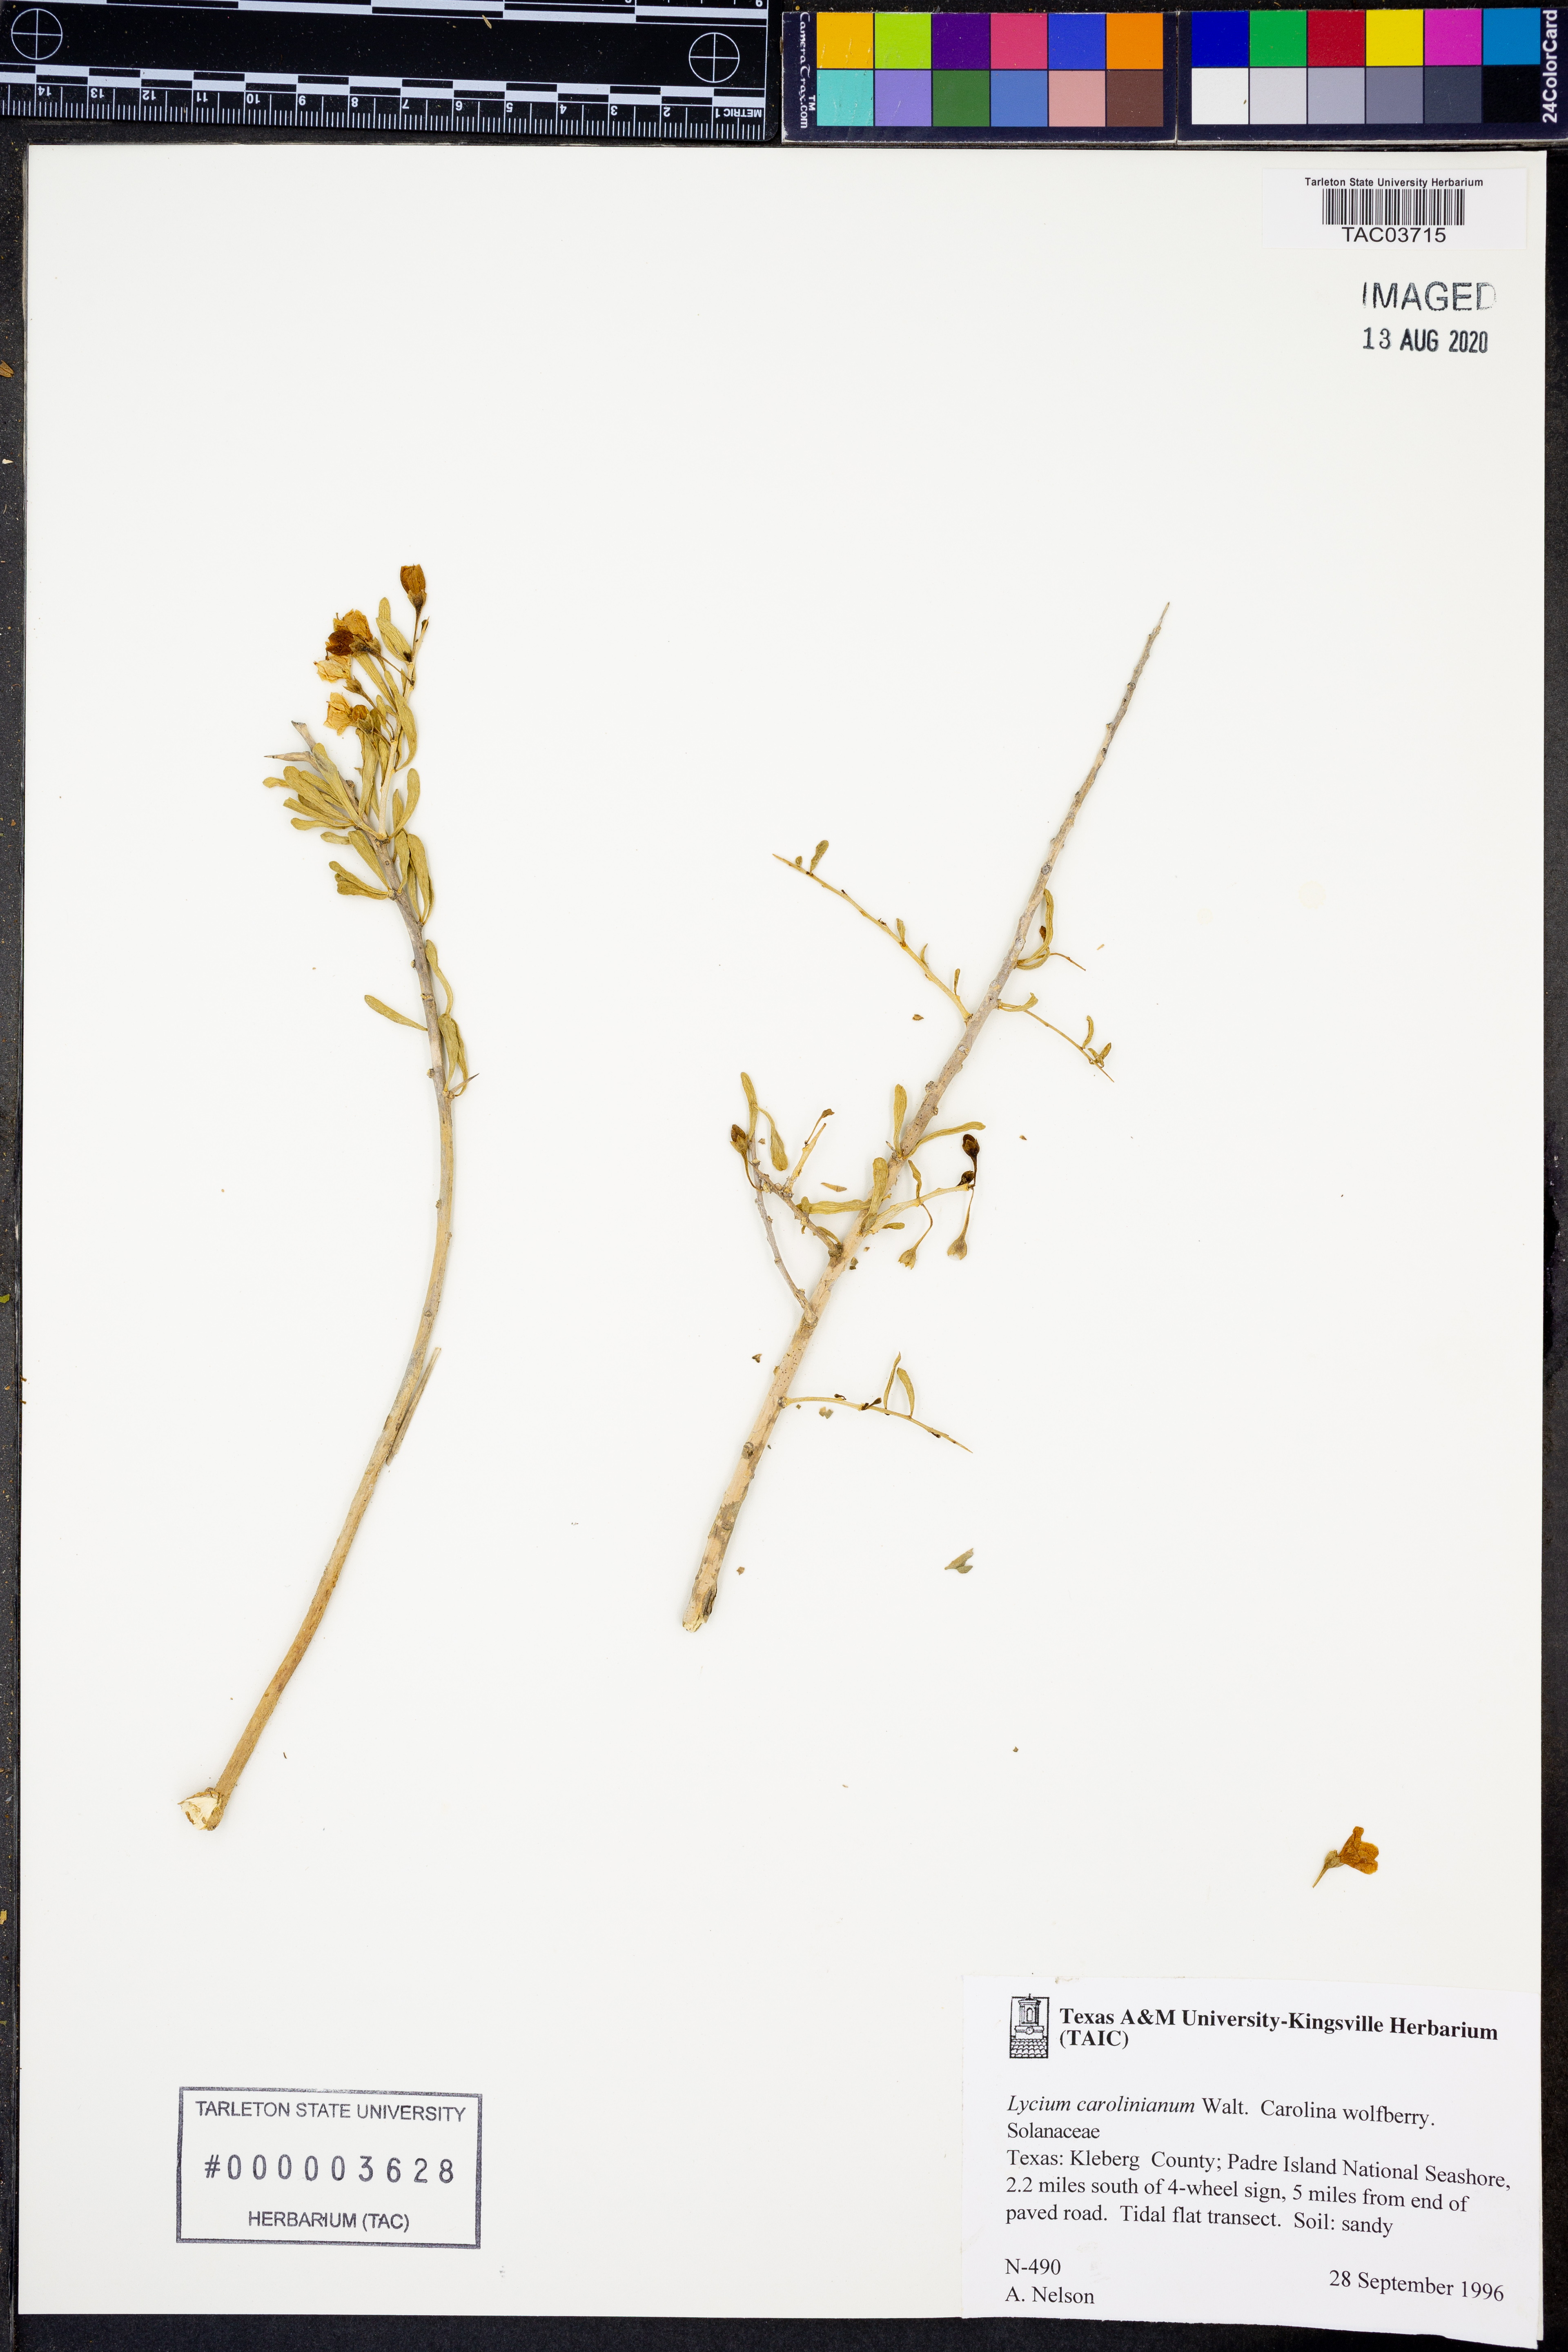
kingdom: Plantae
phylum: Tracheophyta
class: Magnoliopsida
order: Solanales
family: Solanaceae
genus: Lycium
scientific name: Lycium carolinianum
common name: Christmasberry
